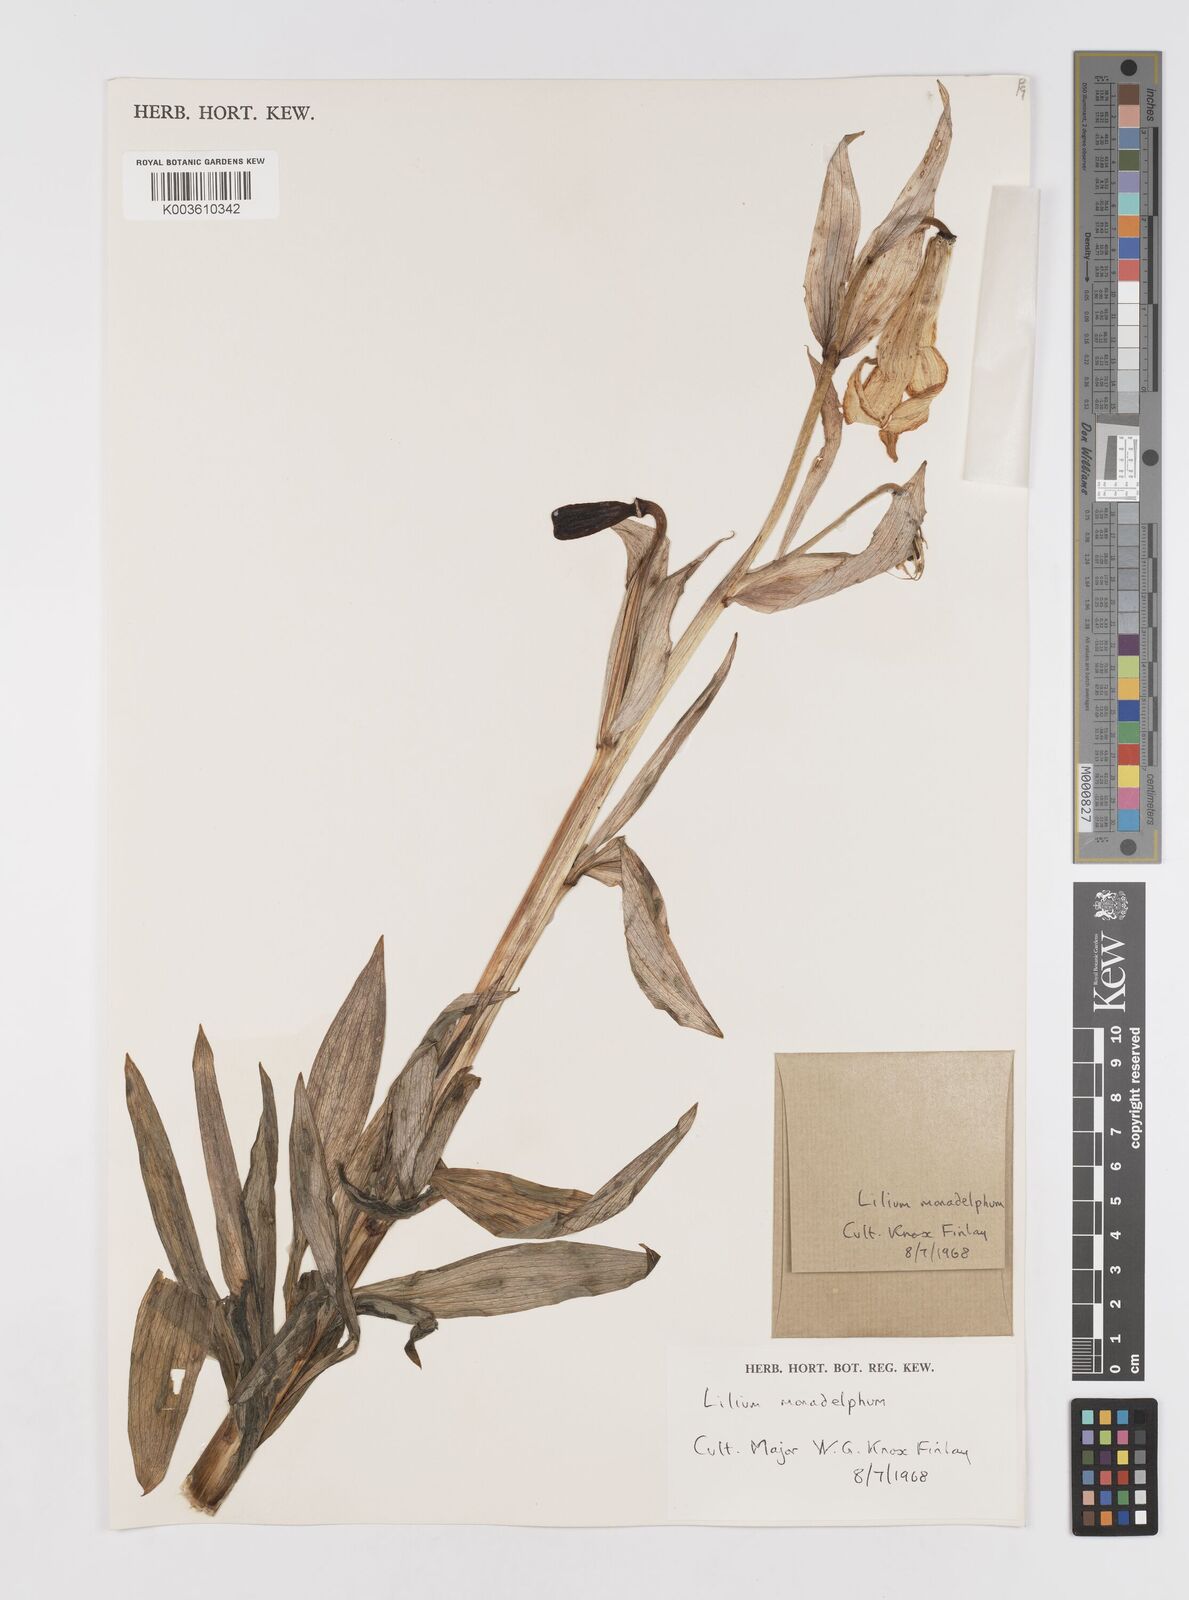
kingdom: Plantae
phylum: Tracheophyta
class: Liliopsida
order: Liliales
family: Liliaceae
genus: Lilium
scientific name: Lilium monadelphum
